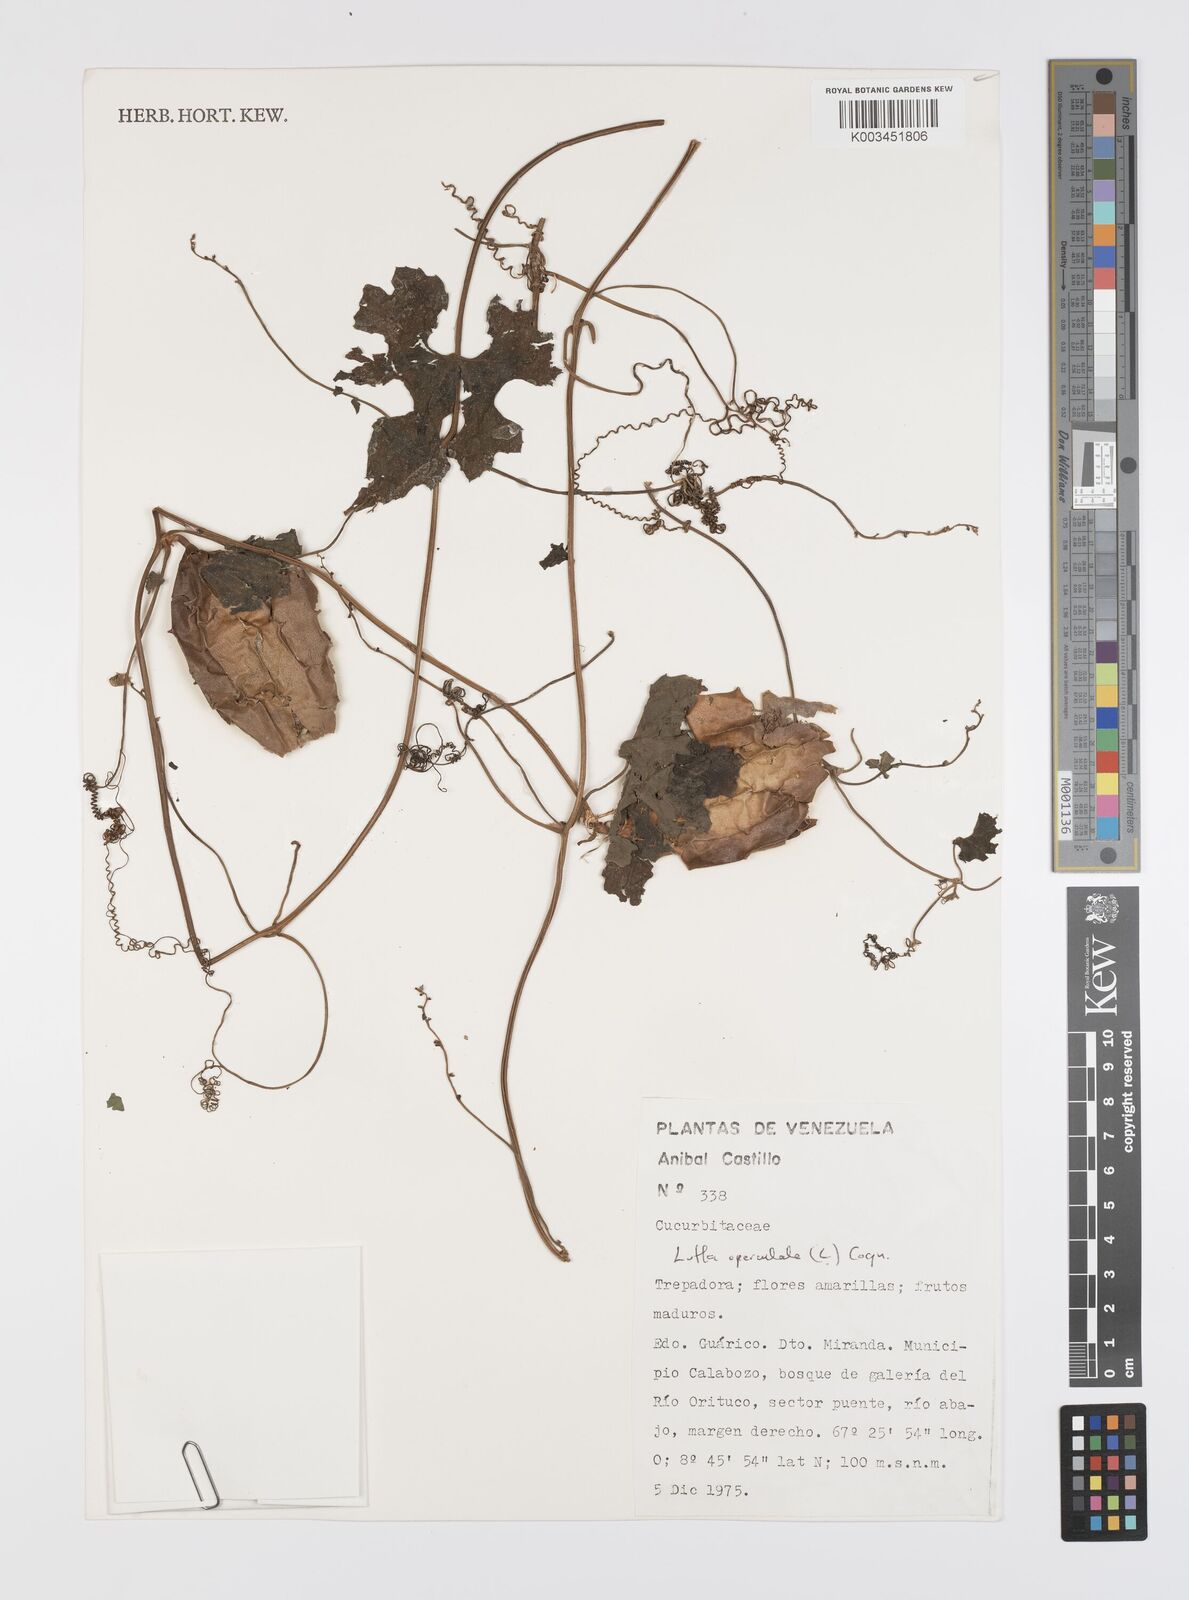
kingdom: Plantae
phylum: Tracheophyta
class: Magnoliopsida
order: Cucurbitales
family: Cucurbitaceae
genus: Luffa
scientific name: Luffa operculata
